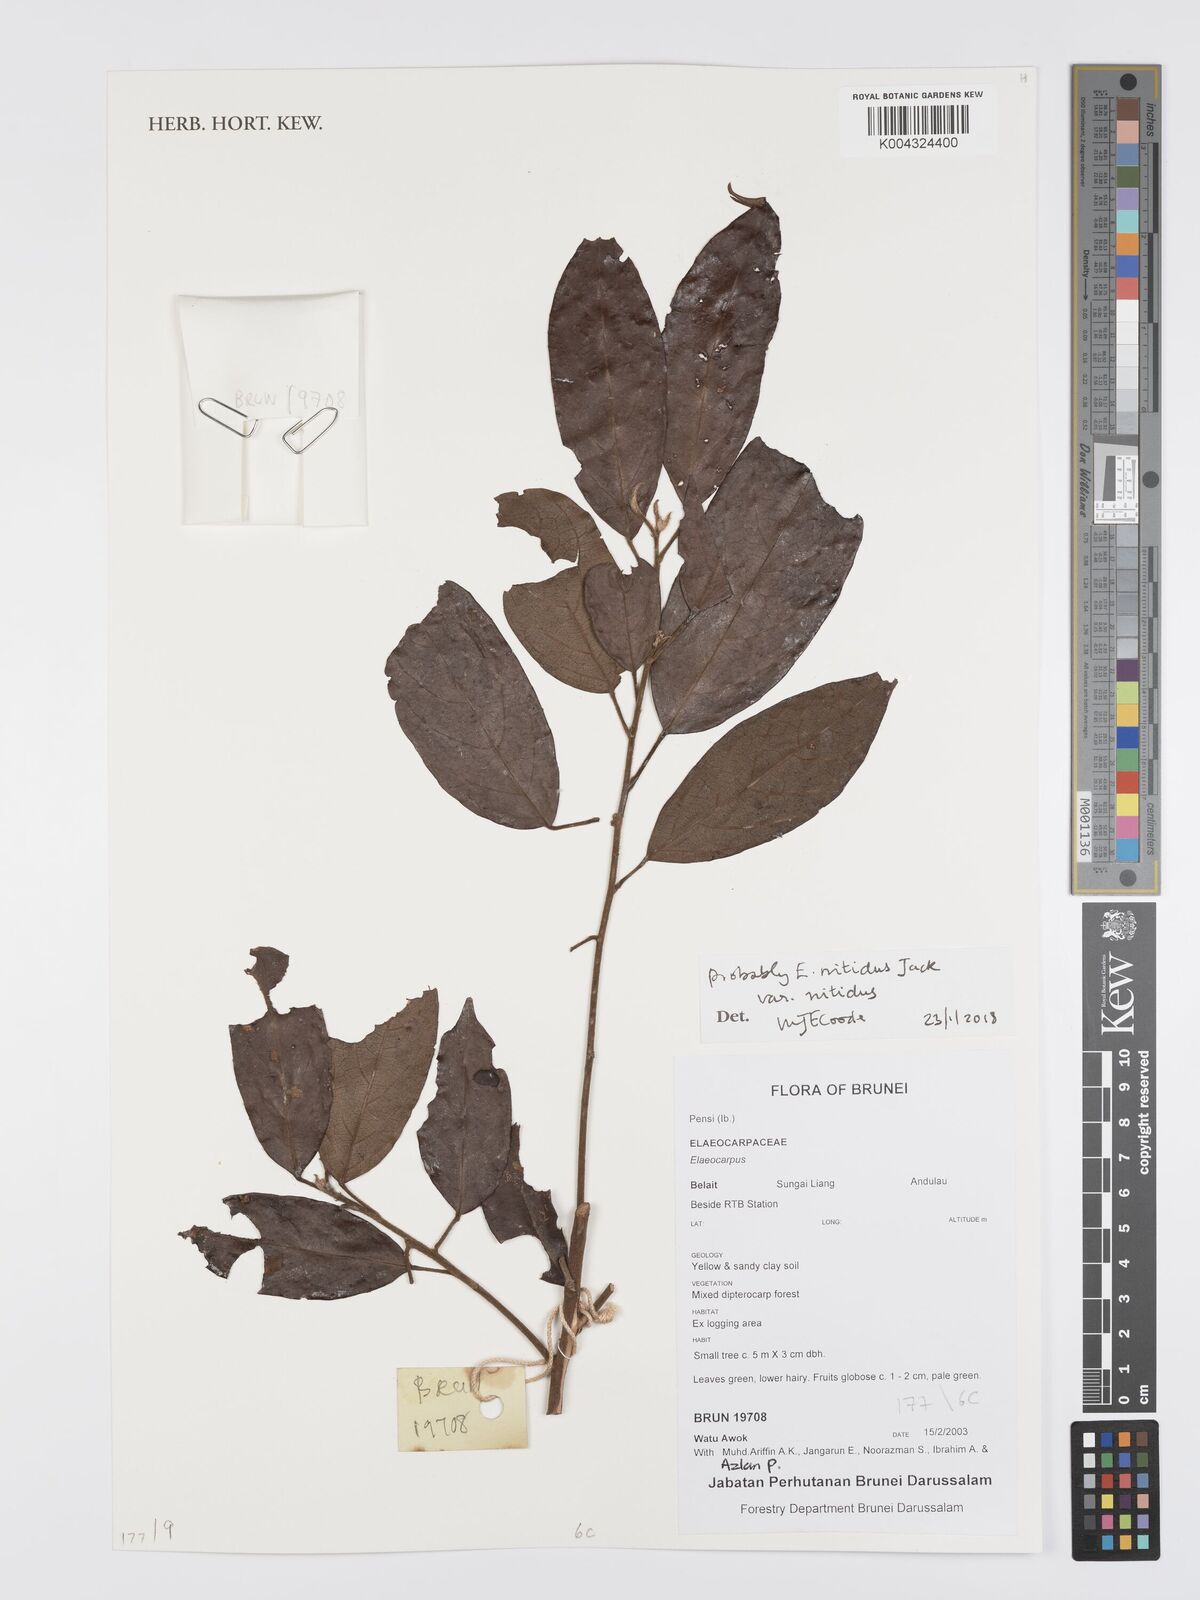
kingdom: Plantae
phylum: Tracheophyta
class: Magnoliopsida
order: Oxalidales
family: Elaeocarpaceae
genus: Elaeocarpus
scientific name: Elaeocarpus nitidus
